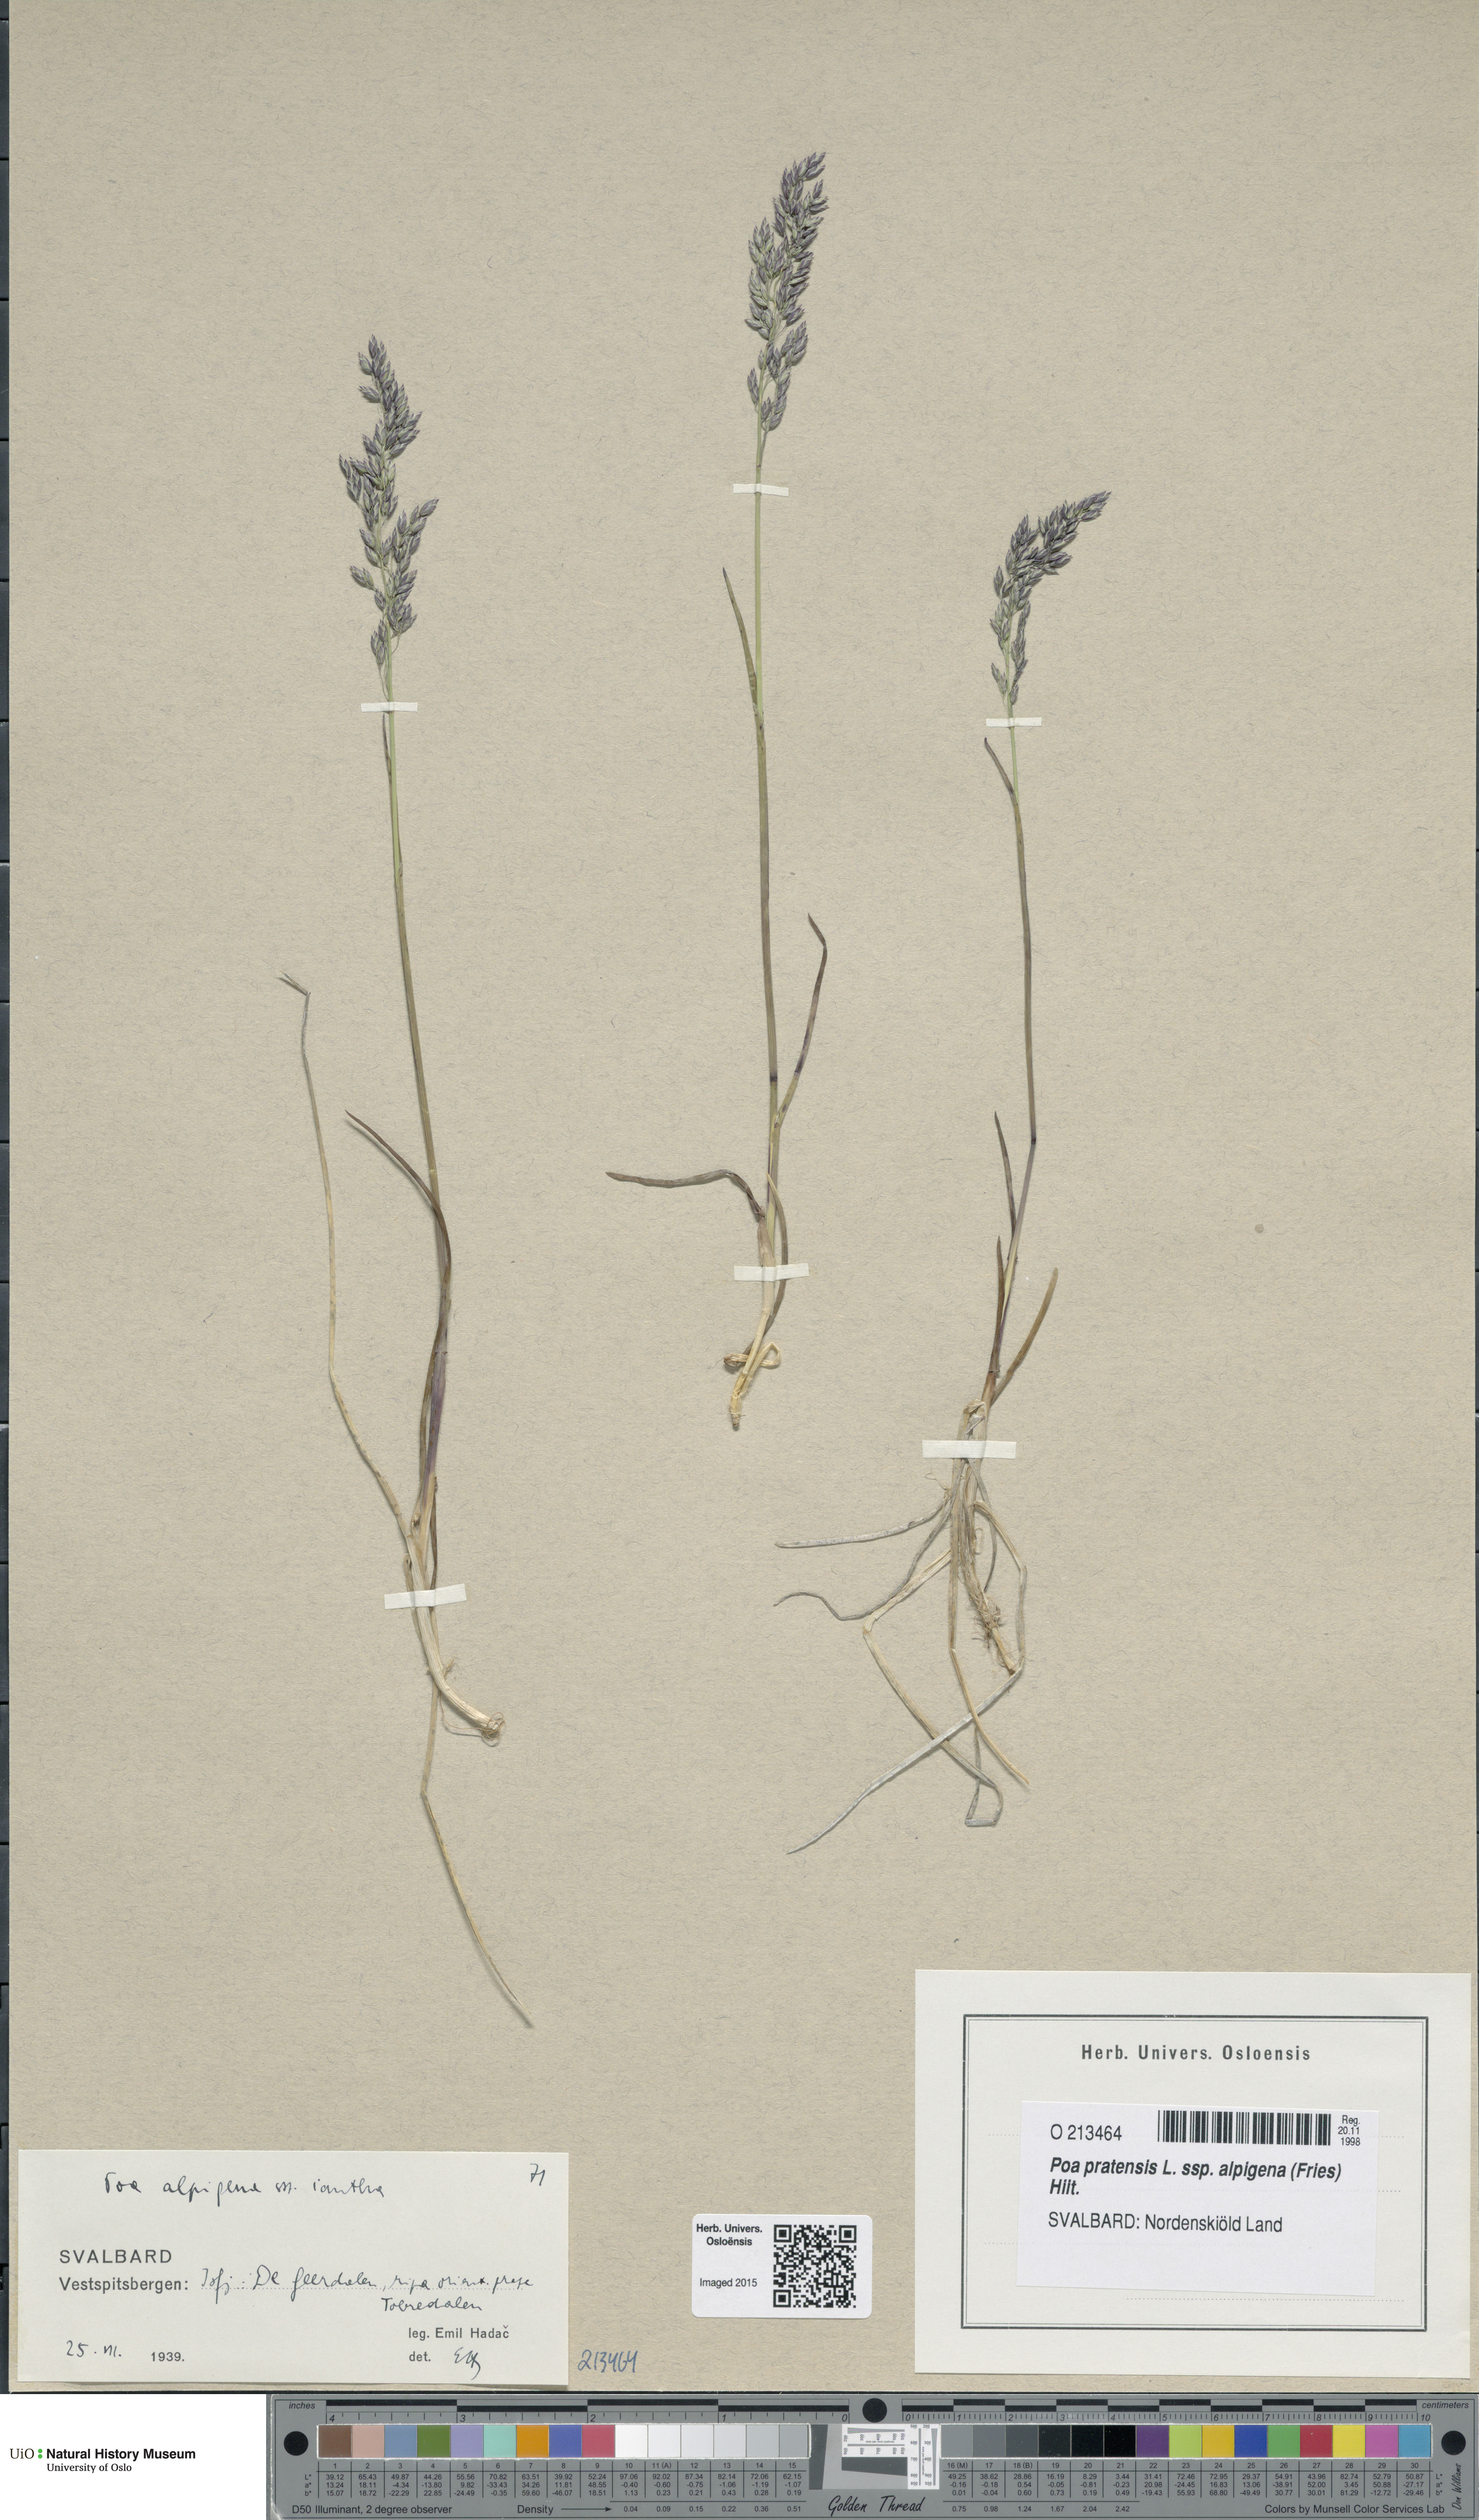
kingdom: Plantae
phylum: Tracheophyta
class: Liliopsida
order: Poales
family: Poaceae
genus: Poa
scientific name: Poa alpigena
